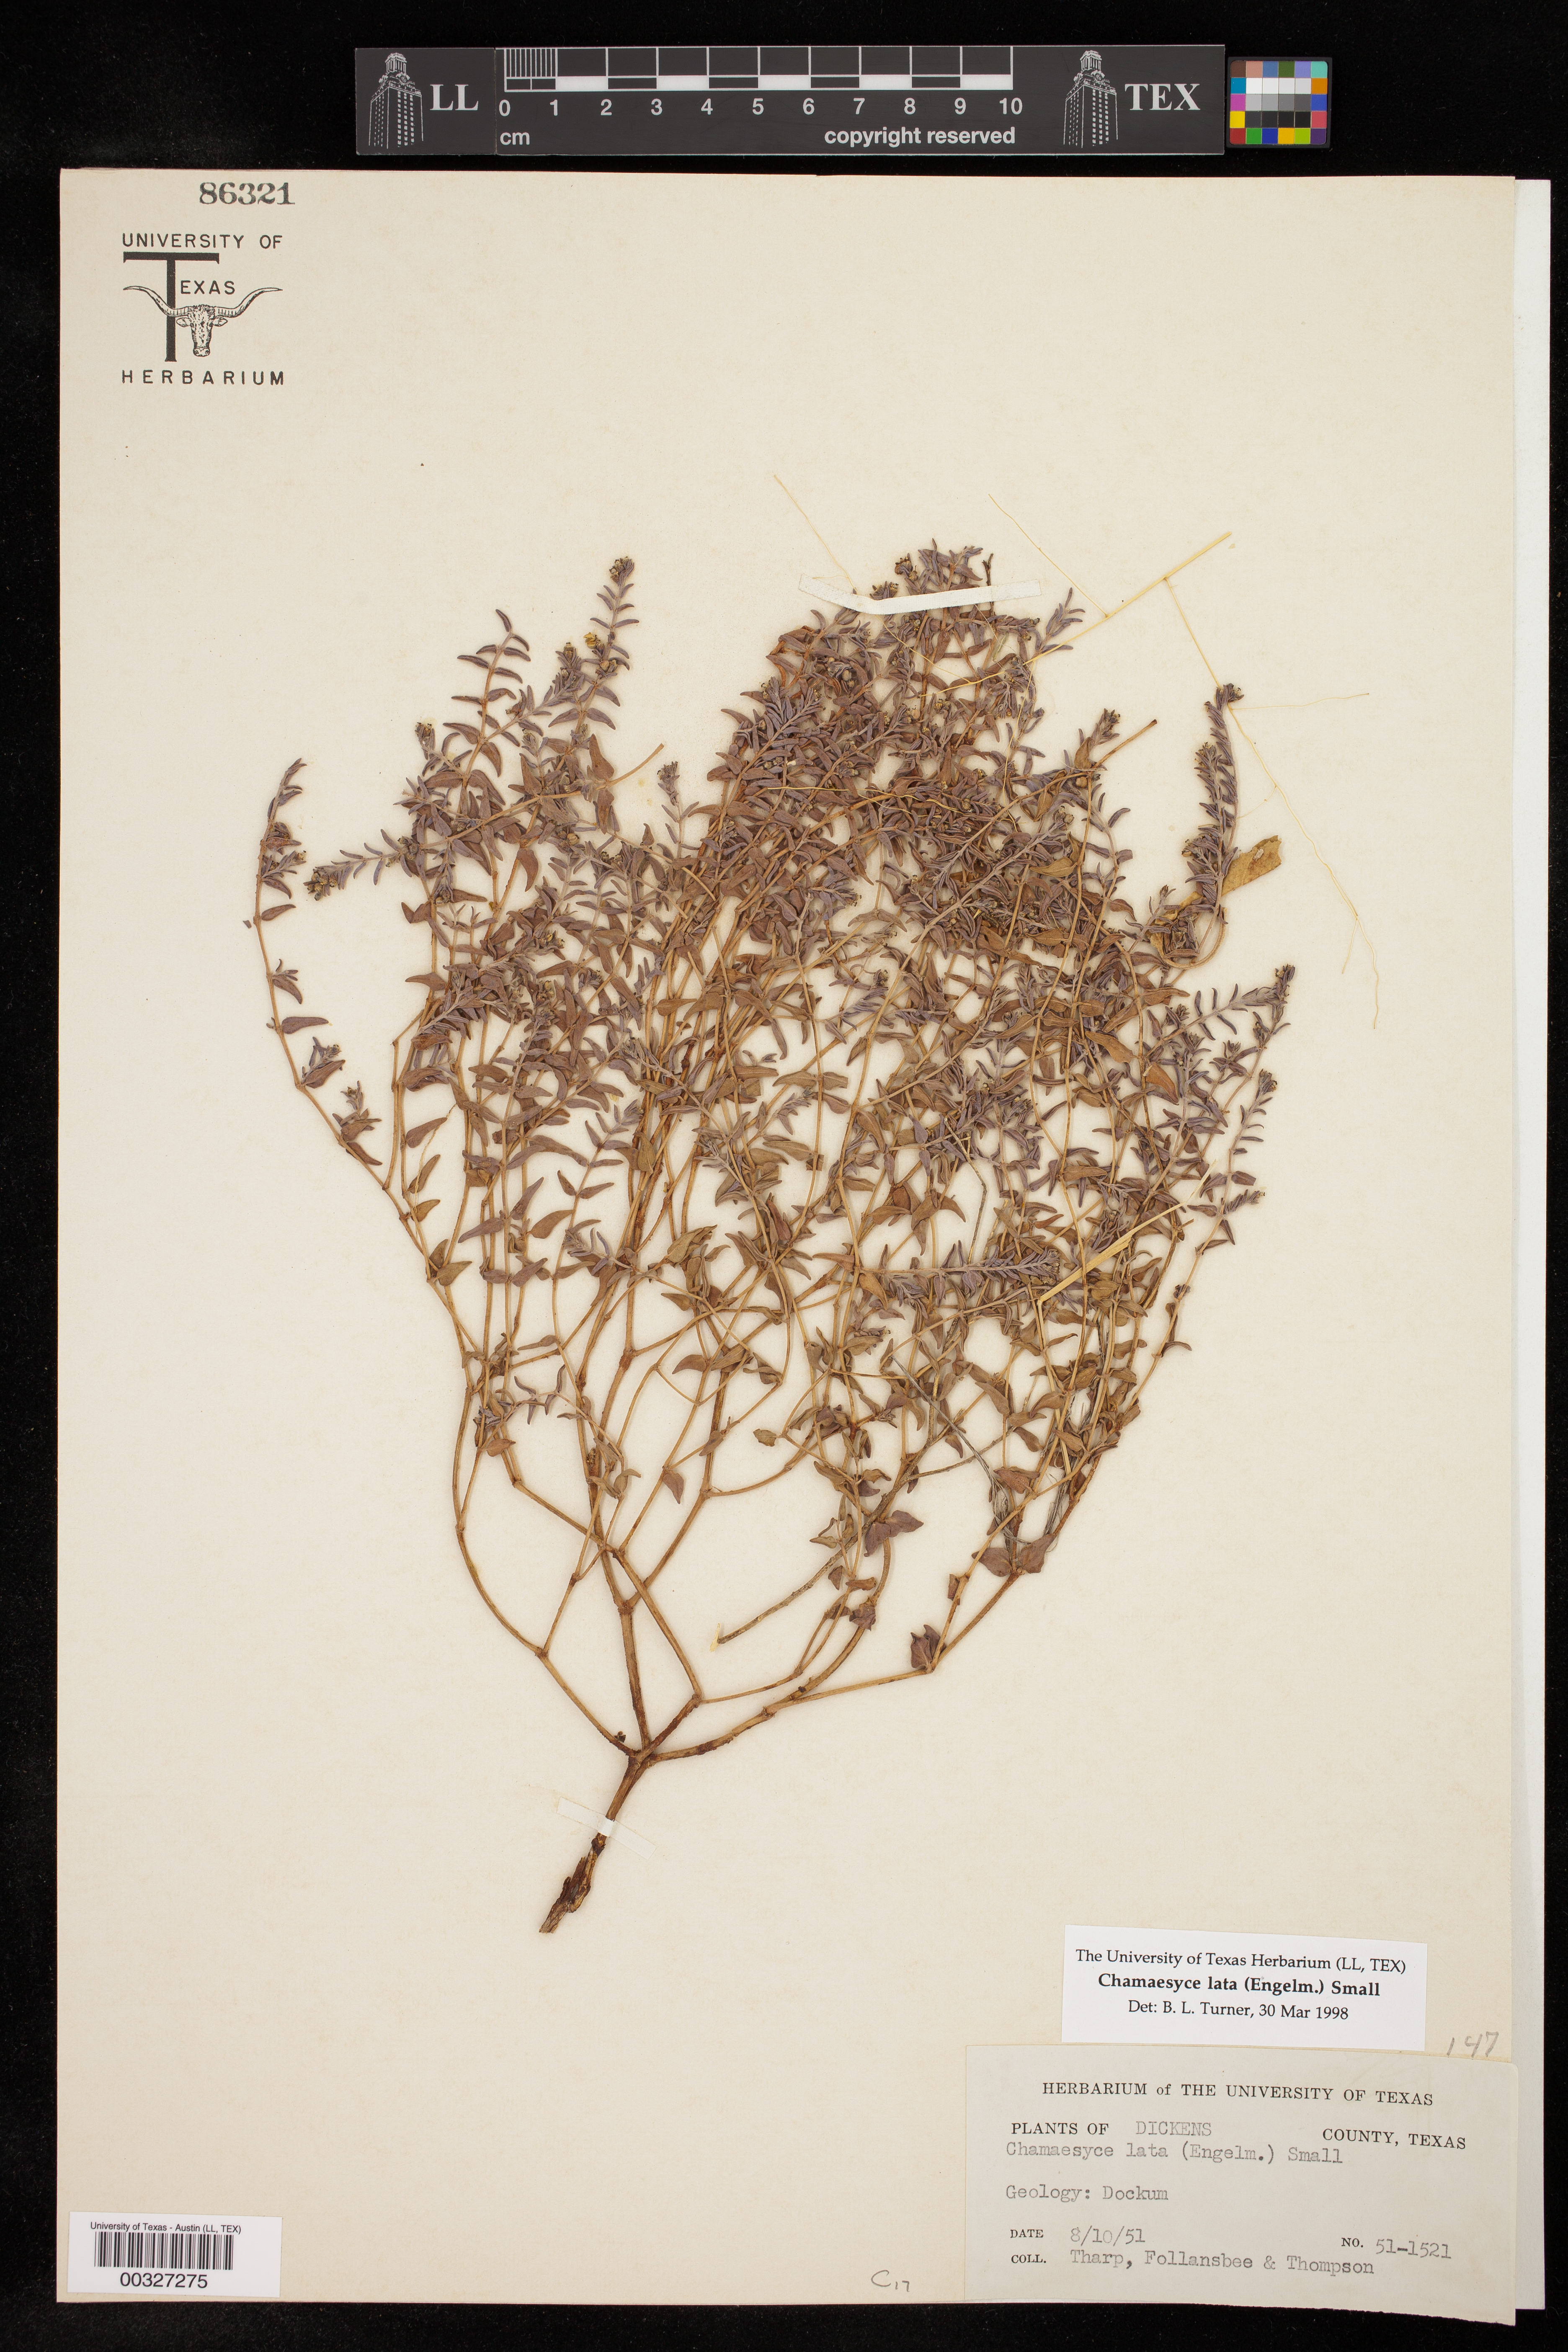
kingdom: Plantae
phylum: Tracheophyta
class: Magnoliopsida
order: Malpighiales
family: Euphorbiaceae
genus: Euphorbia
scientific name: Euphorbia lata
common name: Hoary euphorbia
